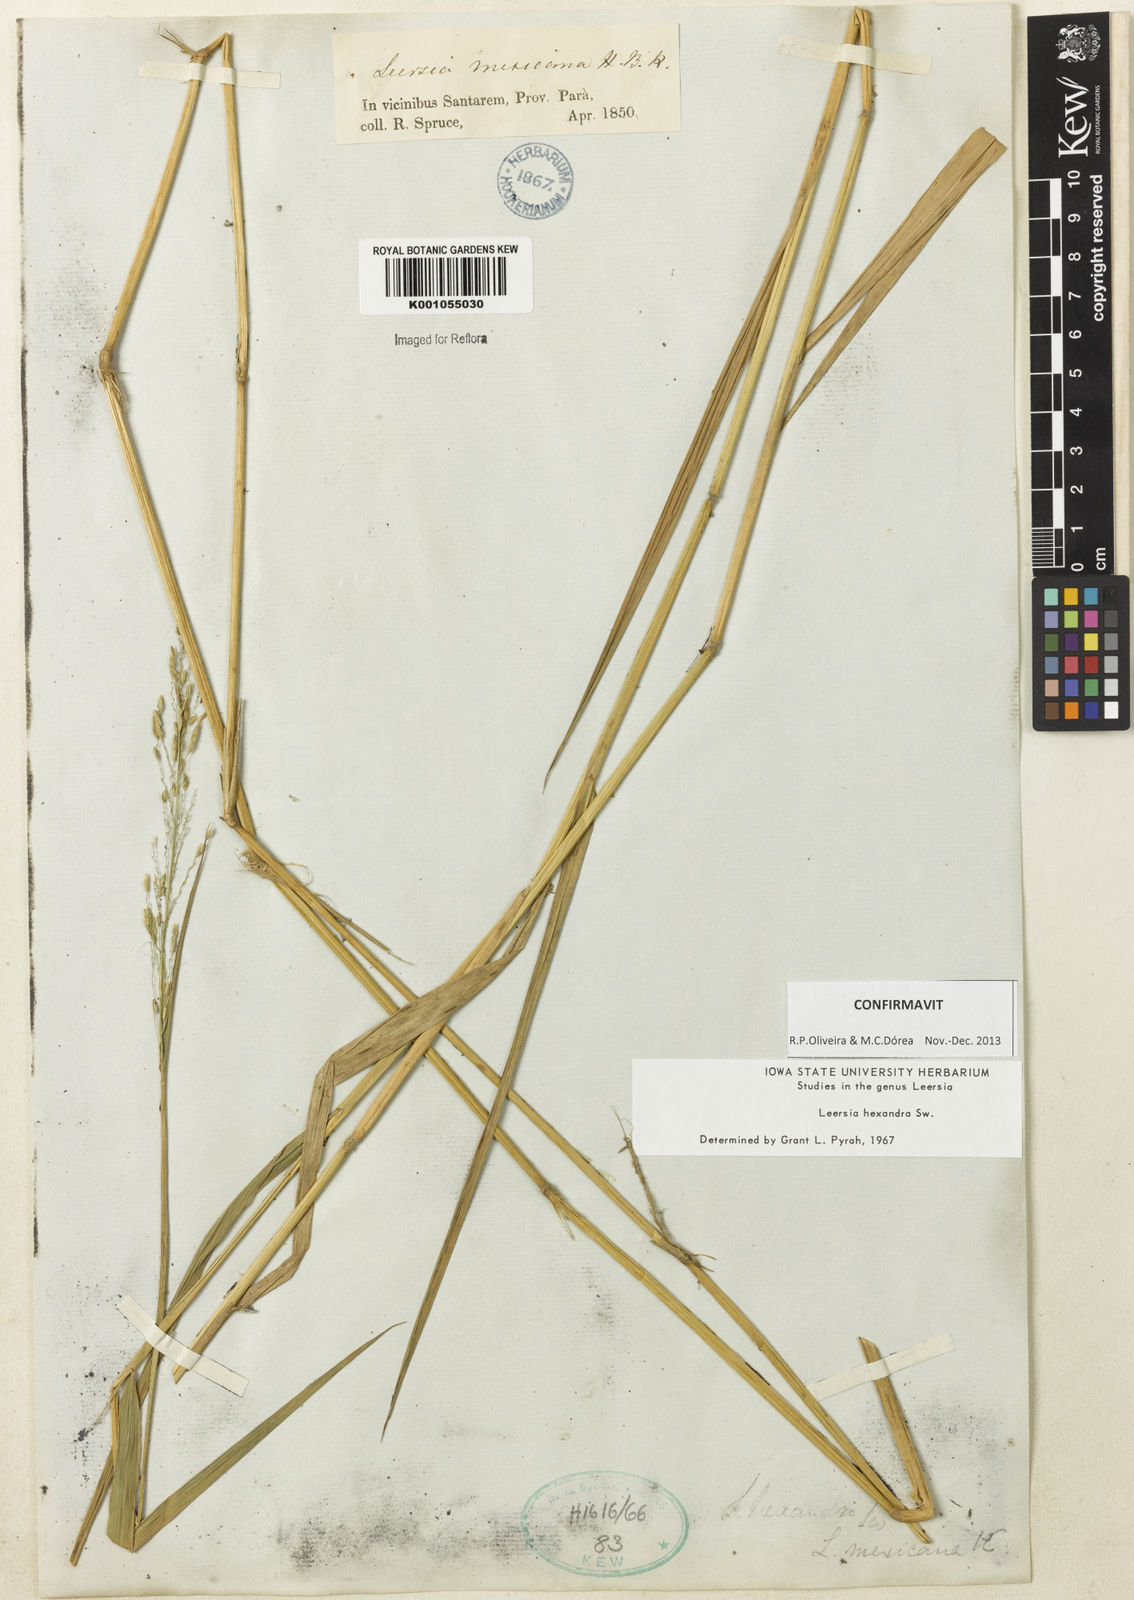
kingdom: Plantae
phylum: Tracheophyta
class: Liliopsida
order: Poales
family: Poaceae
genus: Leersia
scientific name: Leersia hexandra
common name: Southern cut grass
